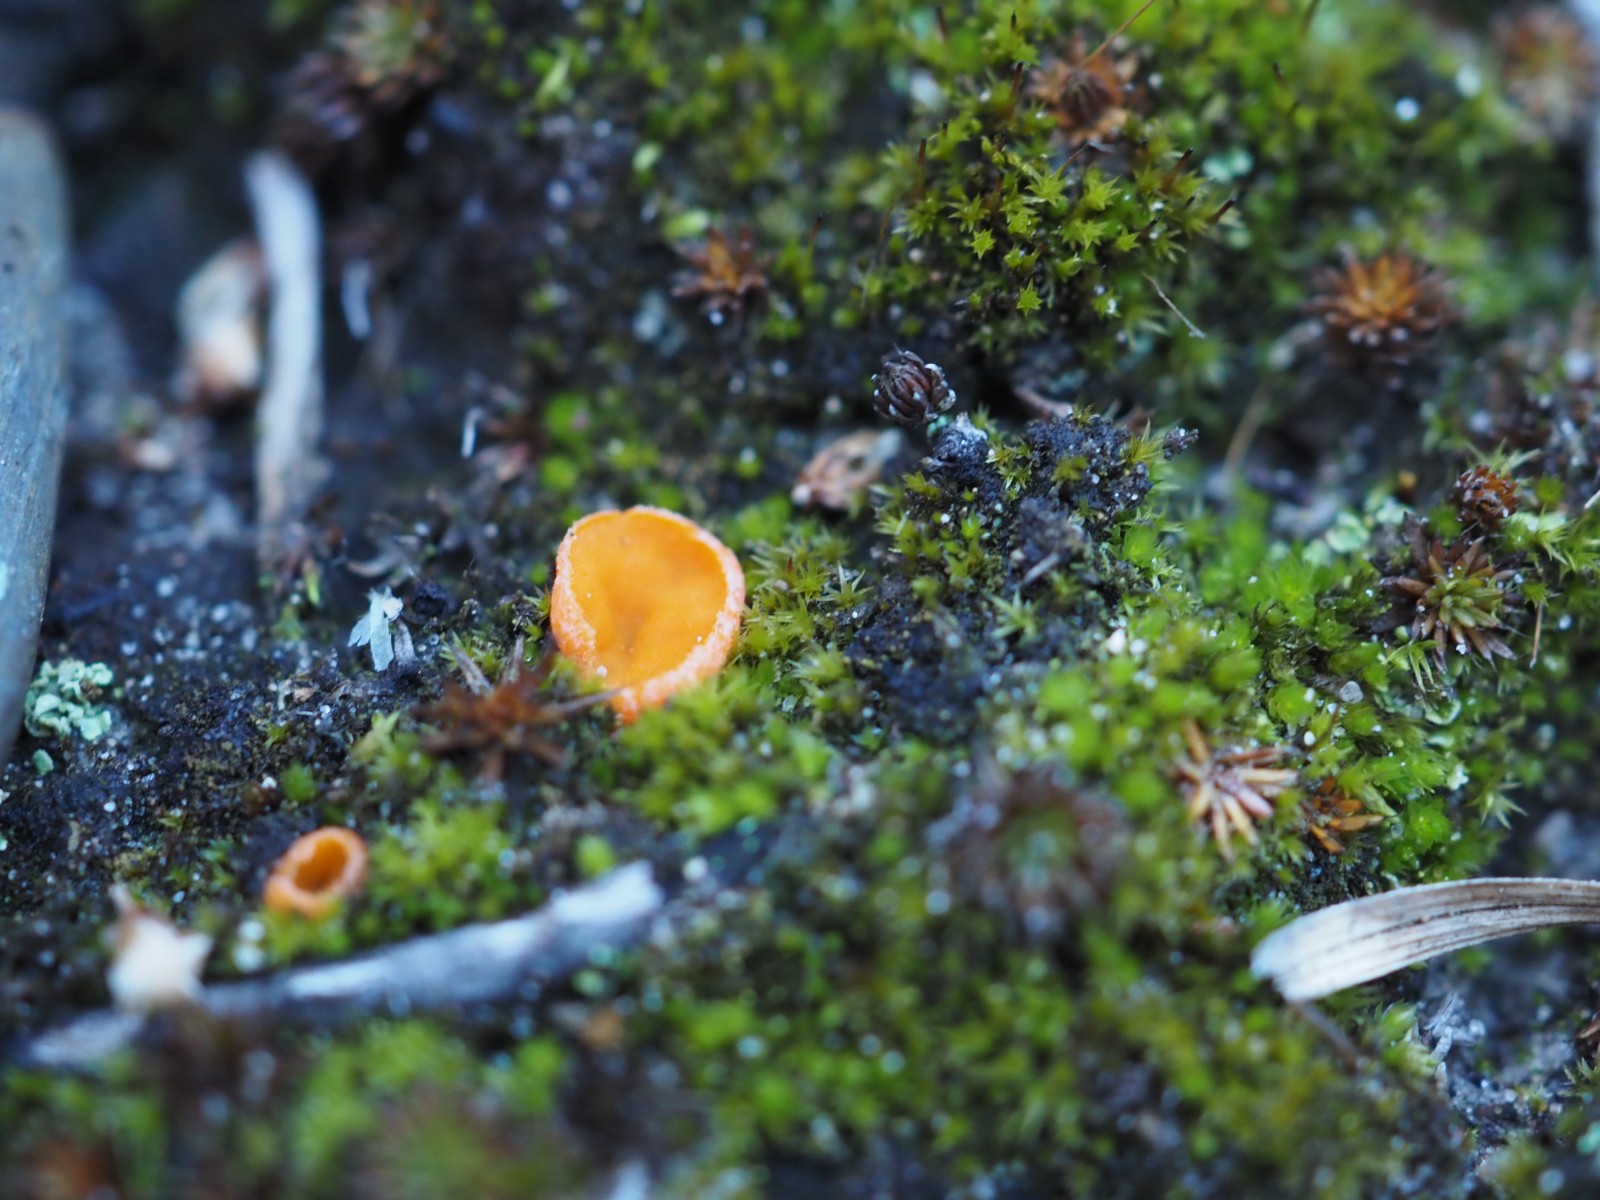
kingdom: Fungi
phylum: Ascomycota
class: Pezizomycetes
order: Pezizales
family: Pyronemataceae
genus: Neottiella
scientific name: Neottiella vivida
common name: sand-mosbæger
